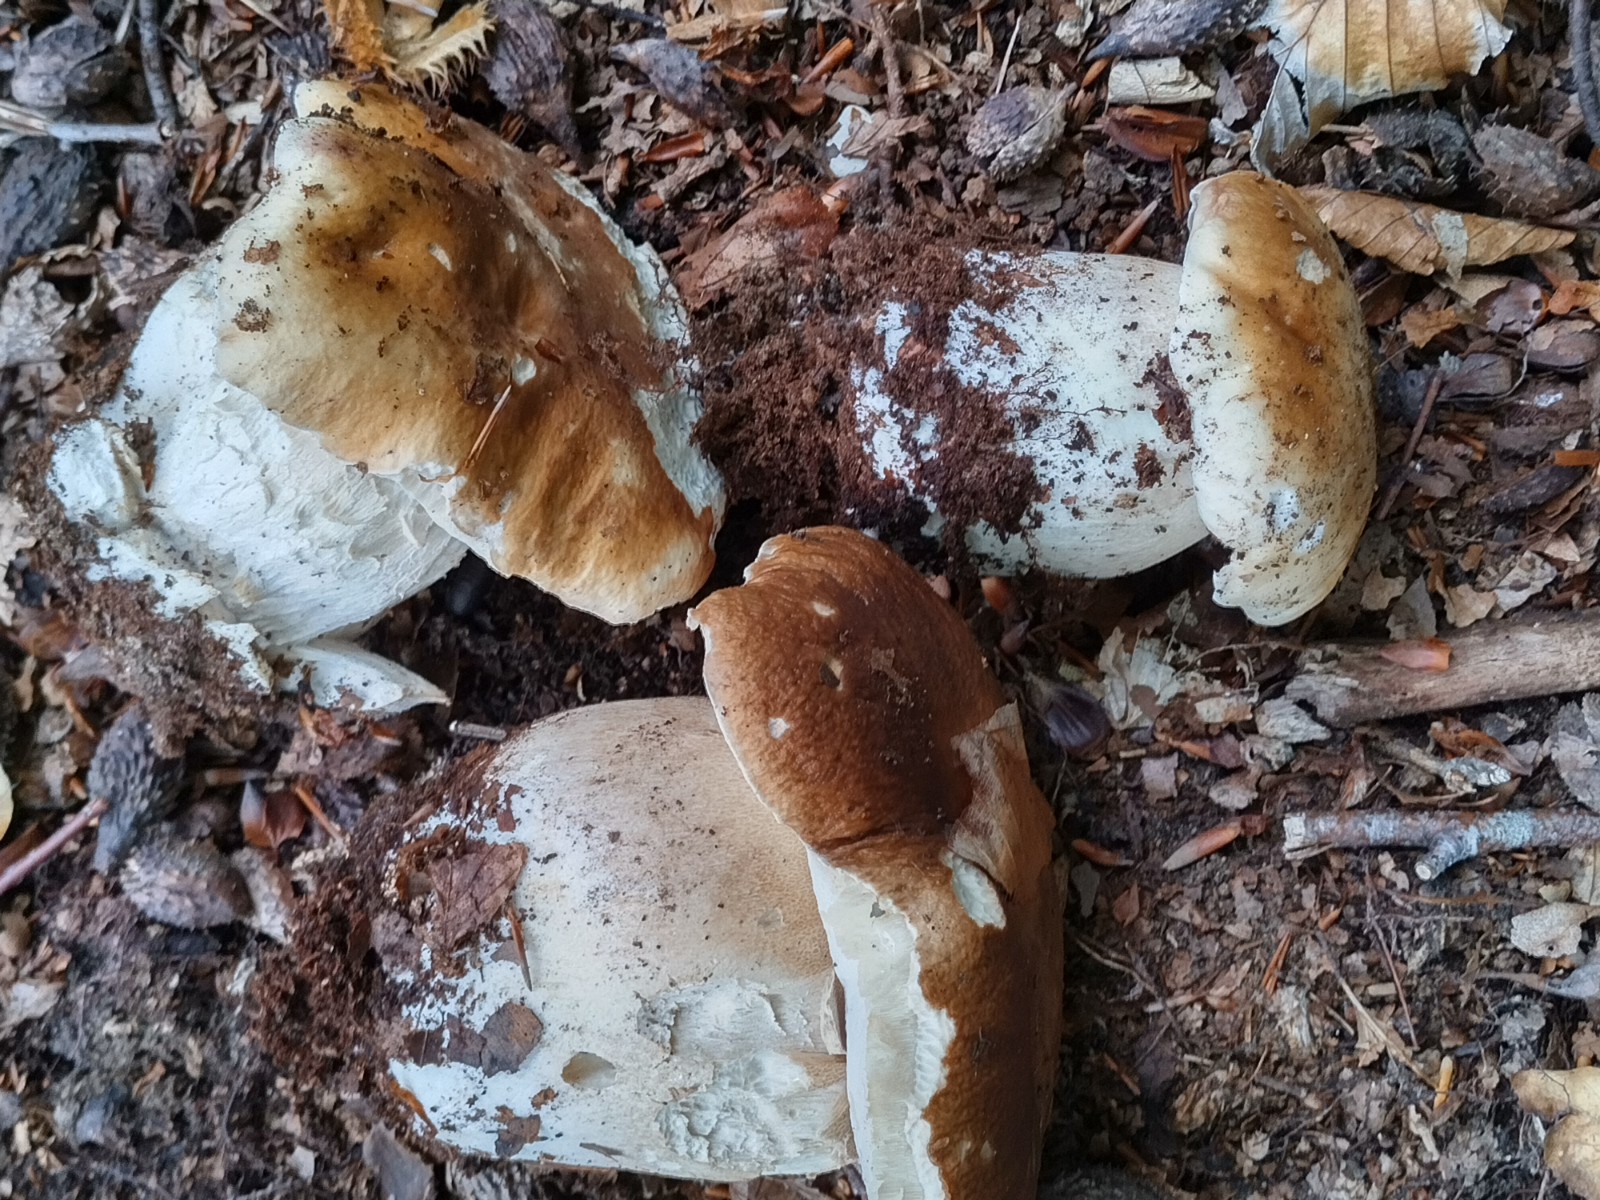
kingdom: Fungi
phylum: Basidiomycota
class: Agaricomycetes
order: Boletales
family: Boletaceae
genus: Boletus
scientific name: Boletus edulis
